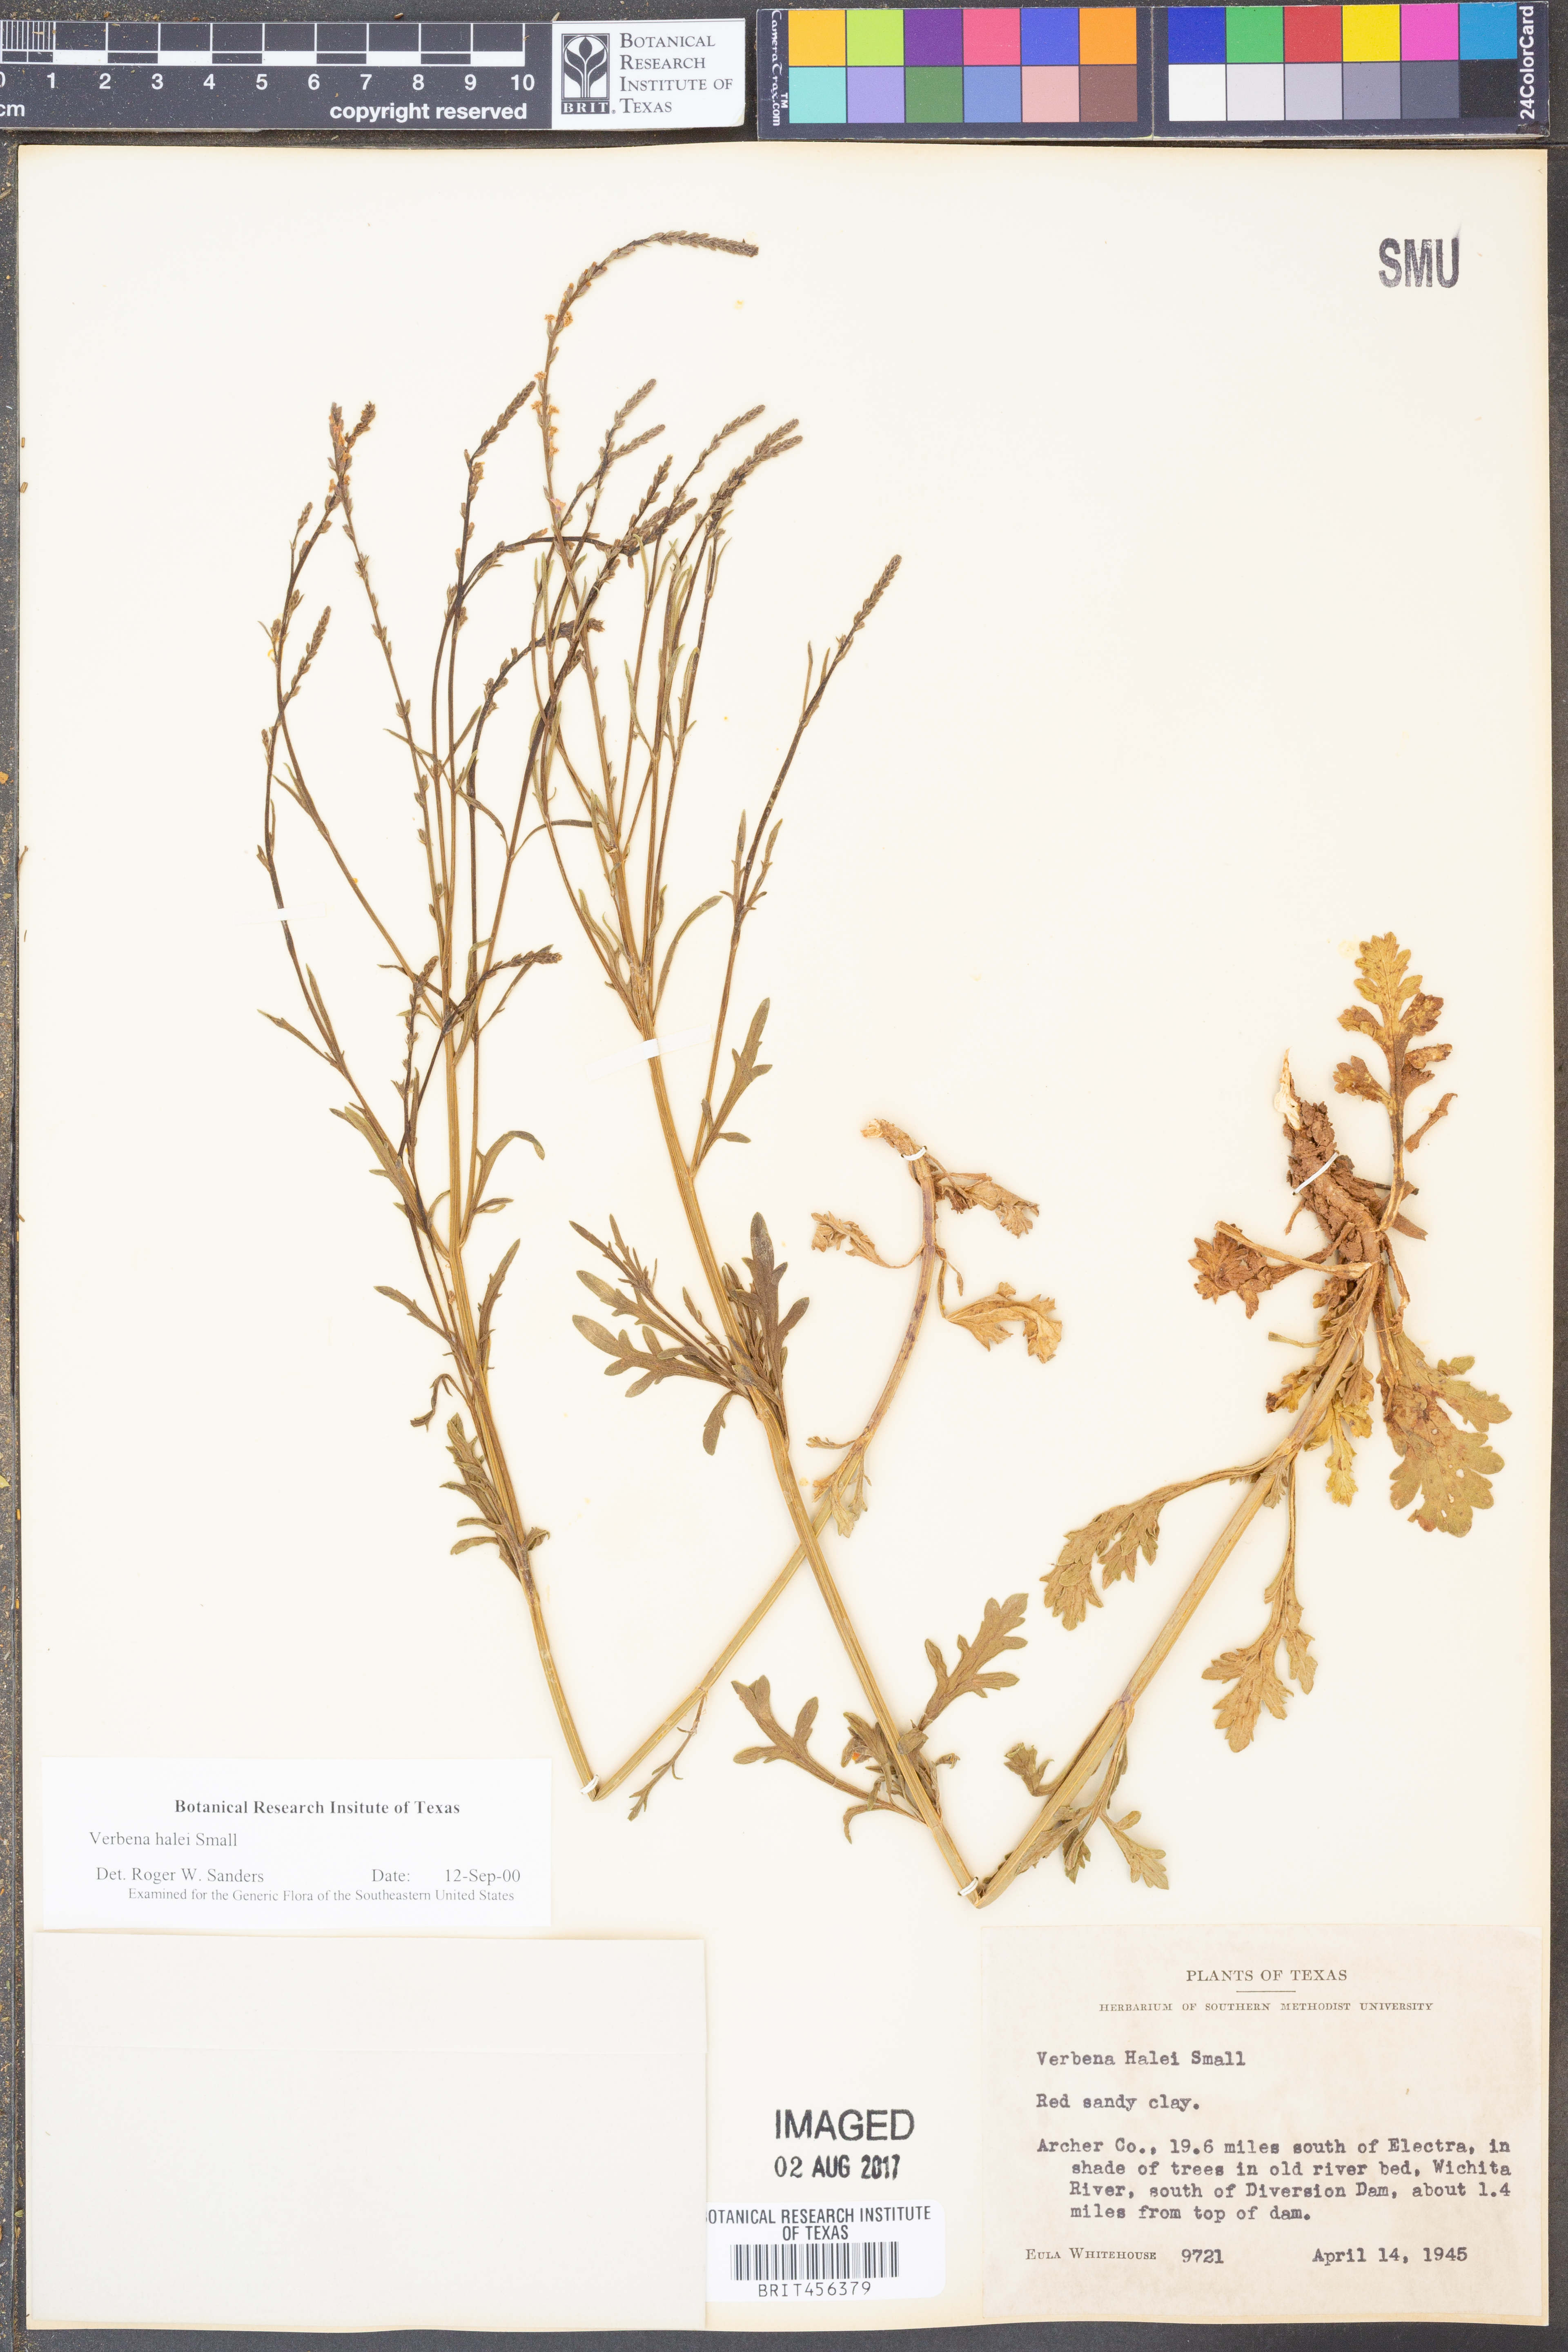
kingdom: Plantae
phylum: Tracheophyta
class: Magnoliopsida
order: Lamiales
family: Verbenaceae
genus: Verbena
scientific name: Verbena halei
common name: Texas vervain
